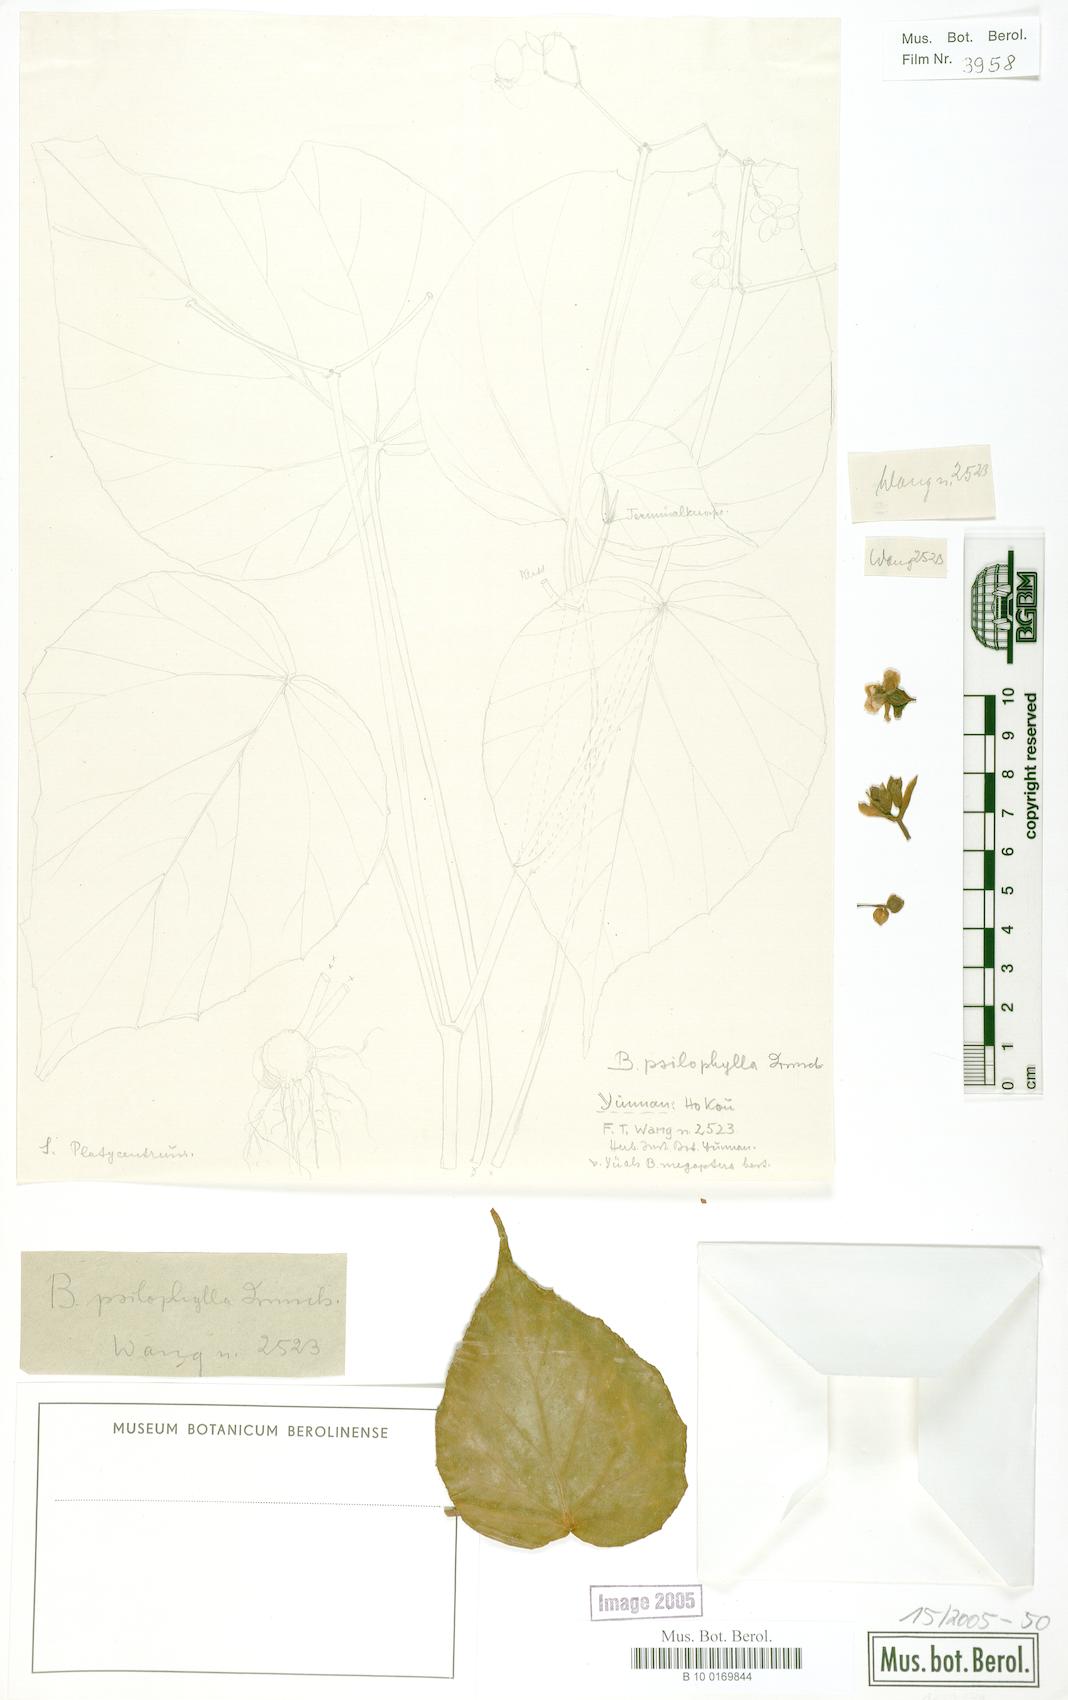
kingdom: Plantae
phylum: Tracheophyta
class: Magnoliopsida
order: Cucurbitales
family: Begoniaceae
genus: Begonia
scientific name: Begonia psilophylla
